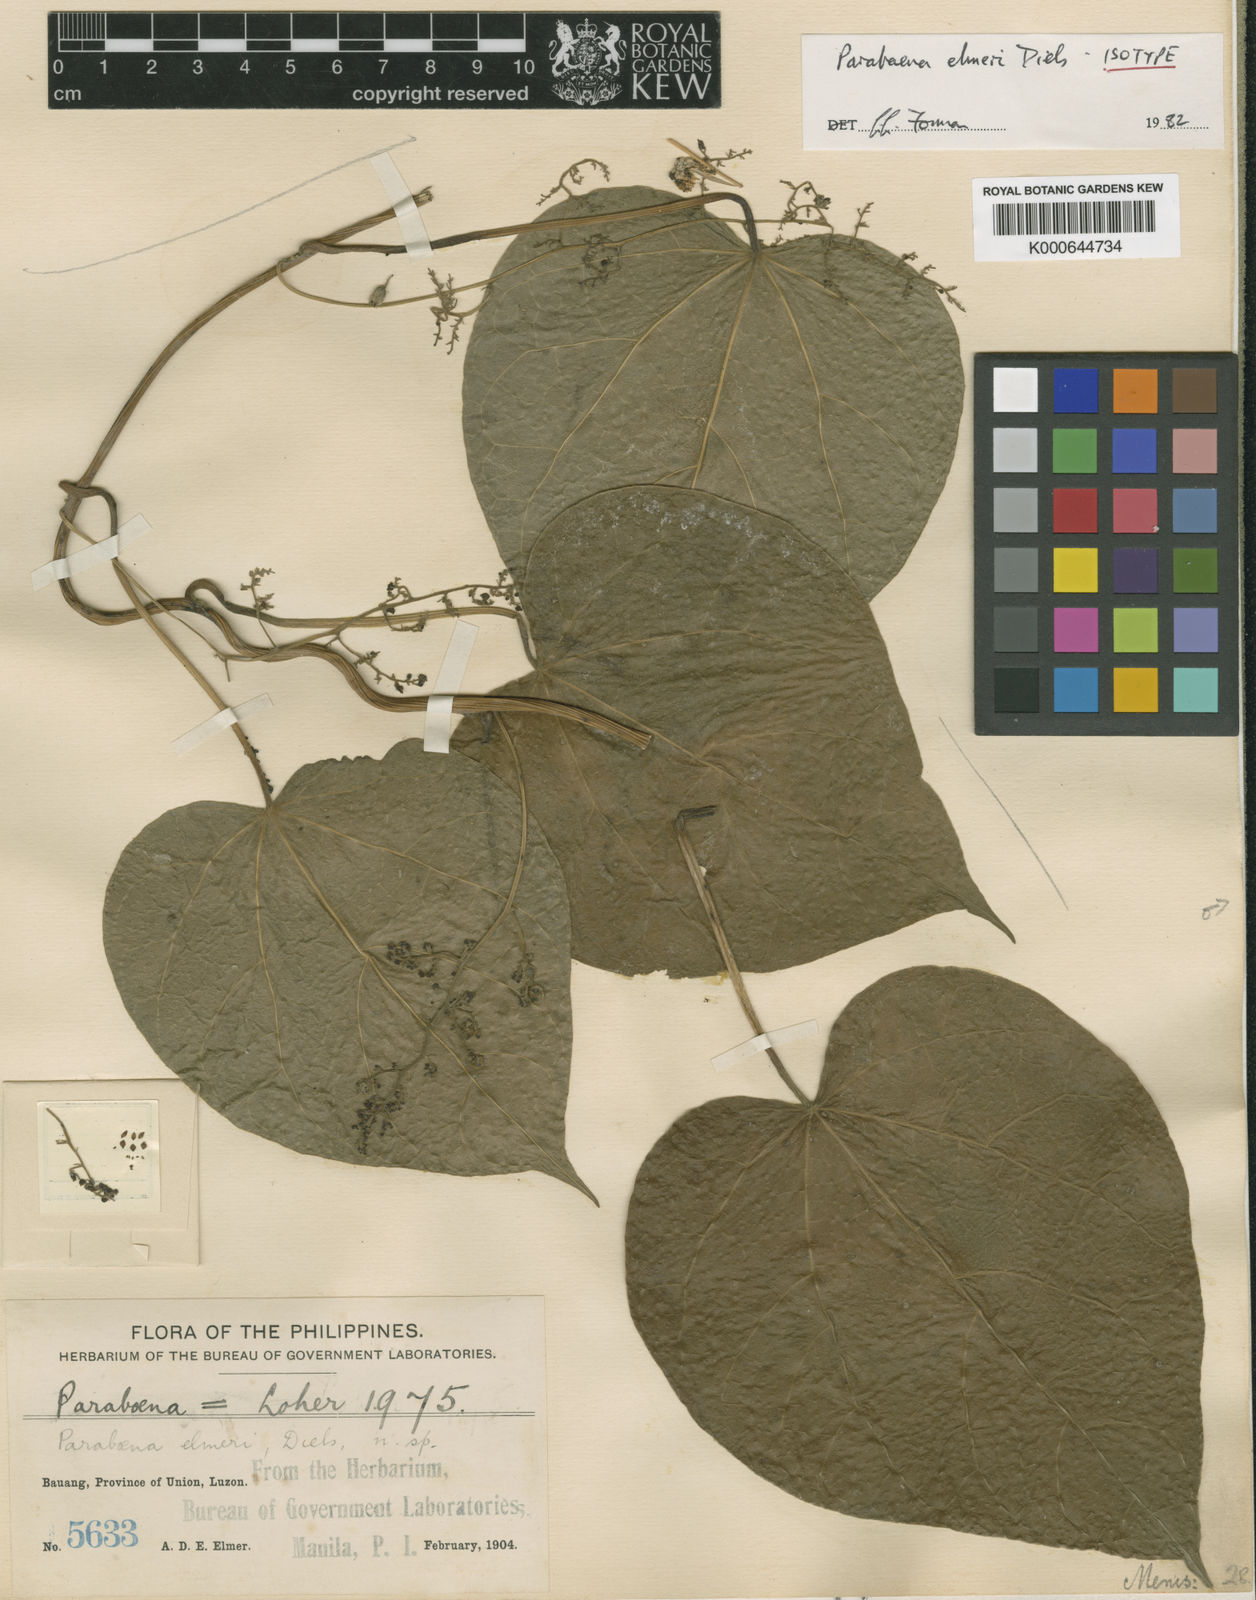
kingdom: Plantae
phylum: Tracheophyta
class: Magnoliopsida
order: Ranunculales
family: Menispermaceae
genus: Parabaena
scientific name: Parabaena elmeri
